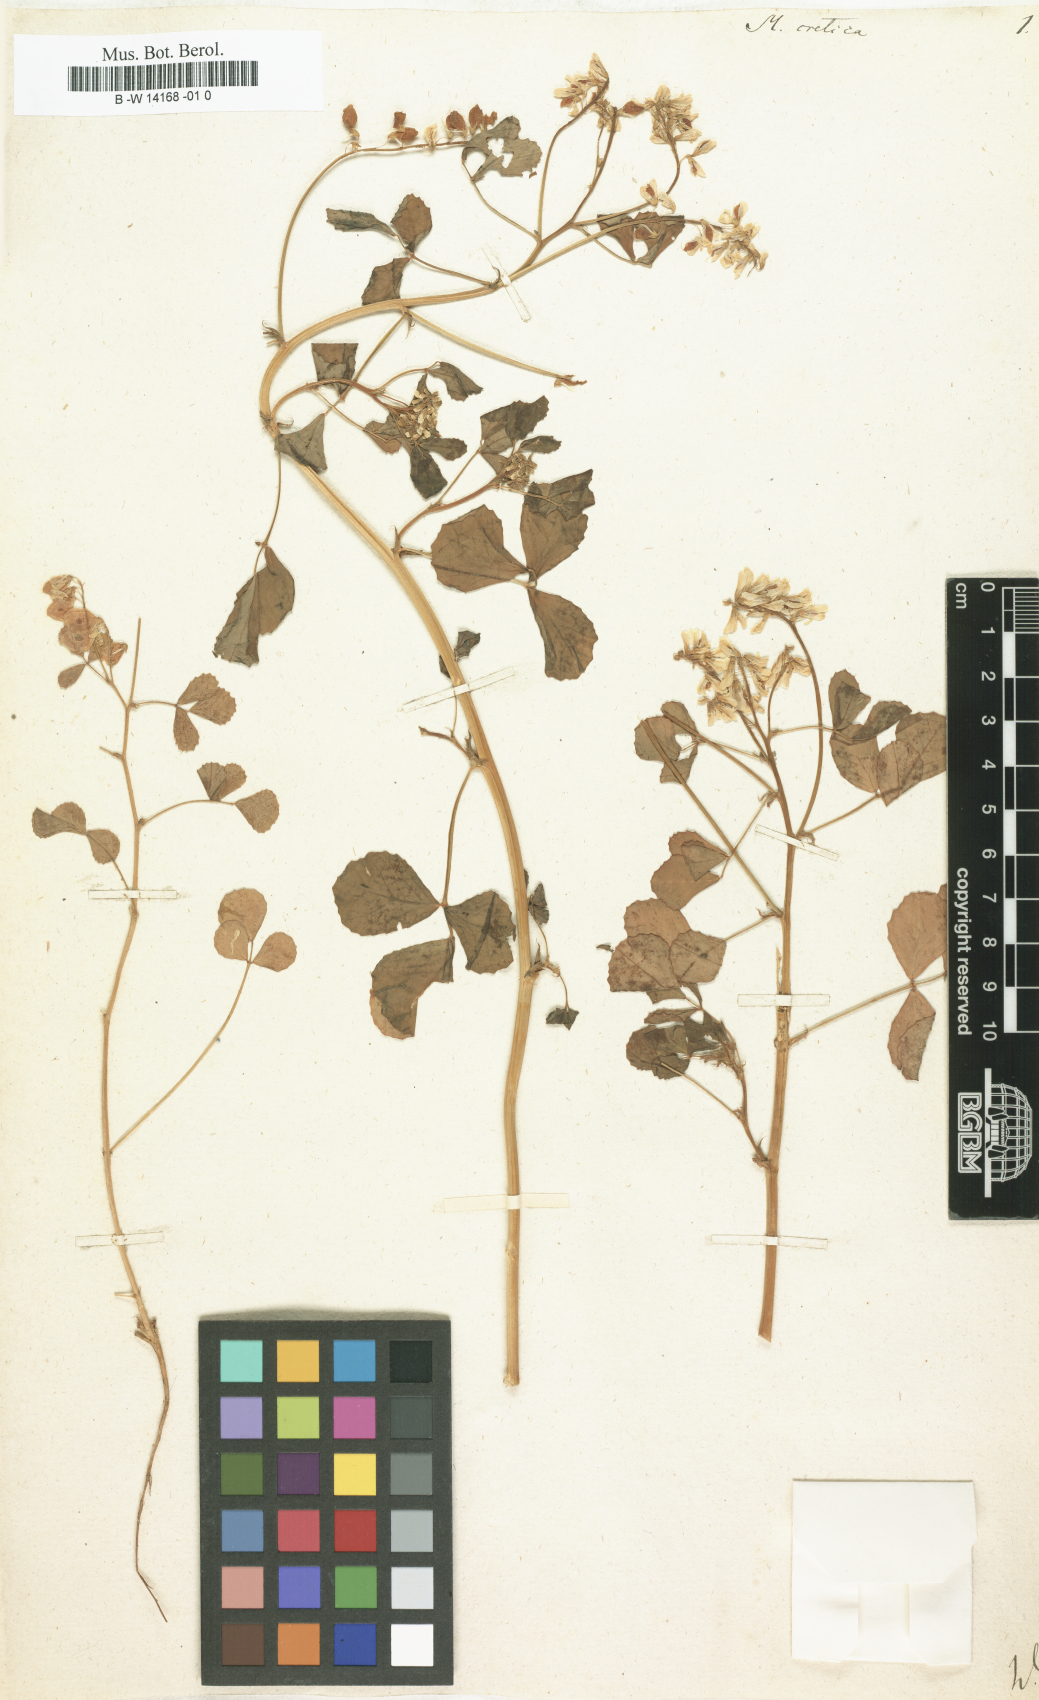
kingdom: Plantae
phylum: Tracheophyta
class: Magnoliopsida
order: Fabales
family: Fabaceae
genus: Trigonella
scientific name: Trigonella cretica
